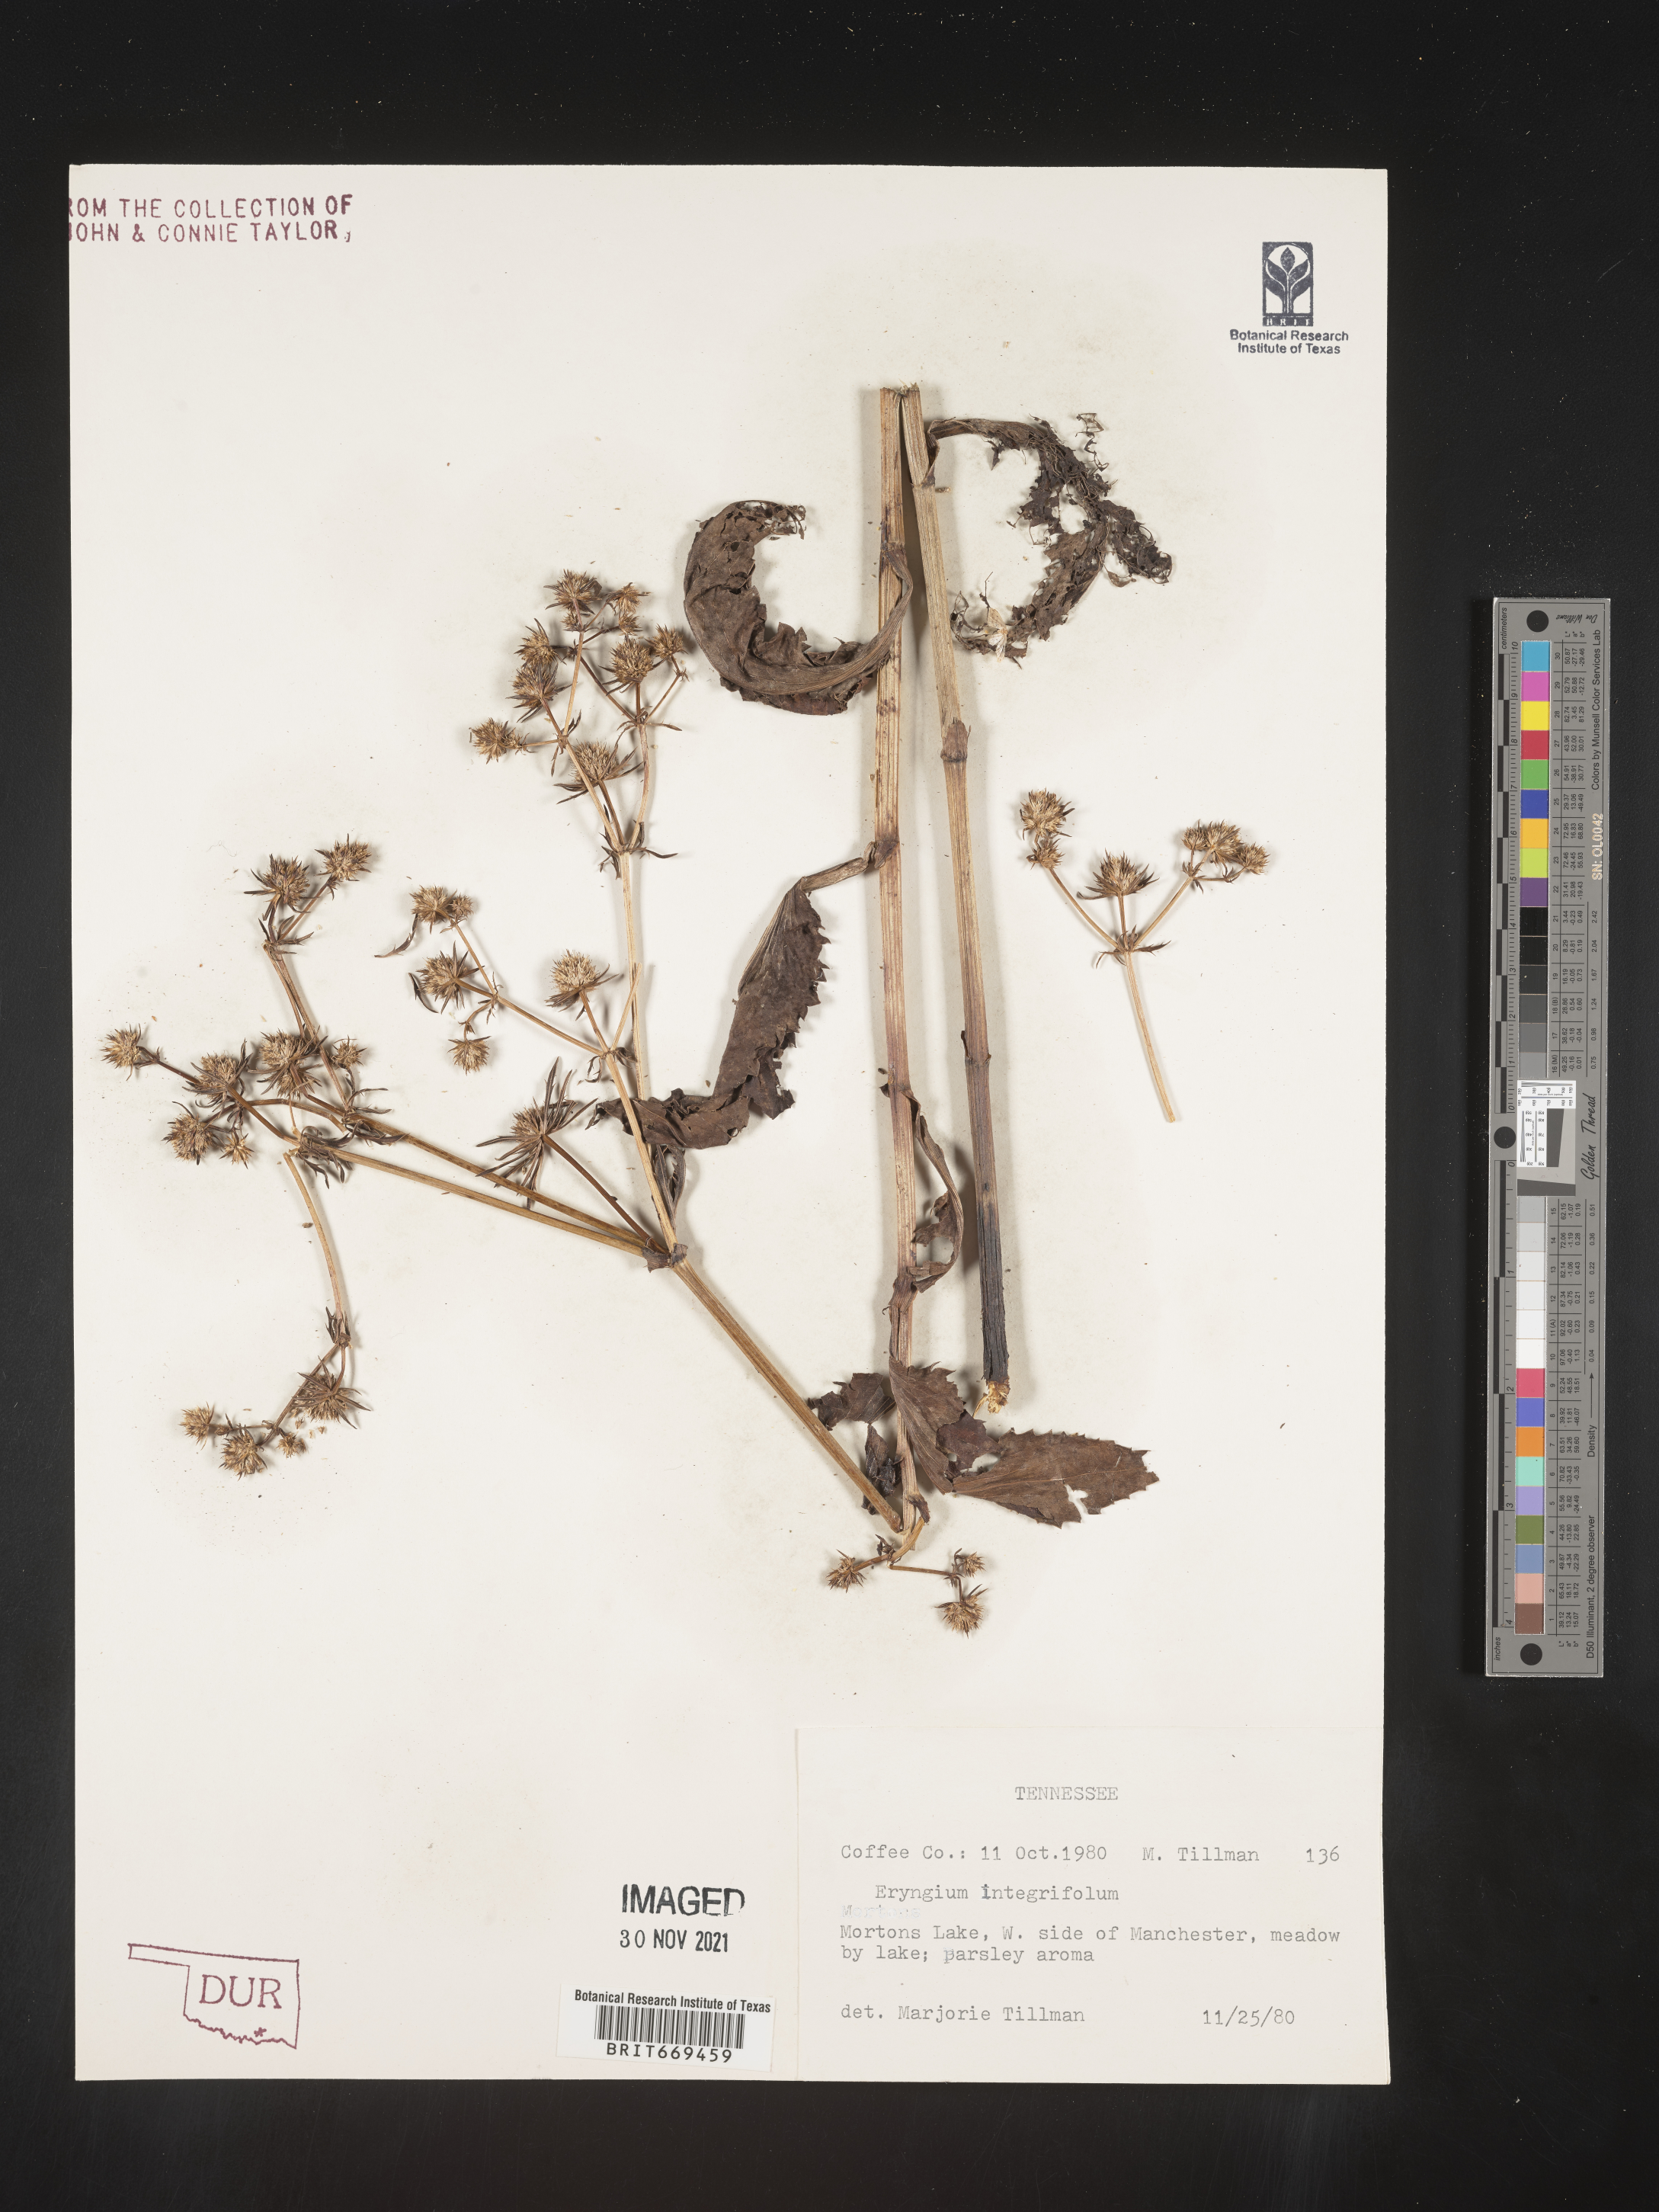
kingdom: Plantae
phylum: Tracheophyta
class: Magnoliopsida
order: Apiales
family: Apiaceae
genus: Eryngium
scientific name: Eryngium integrifolium
